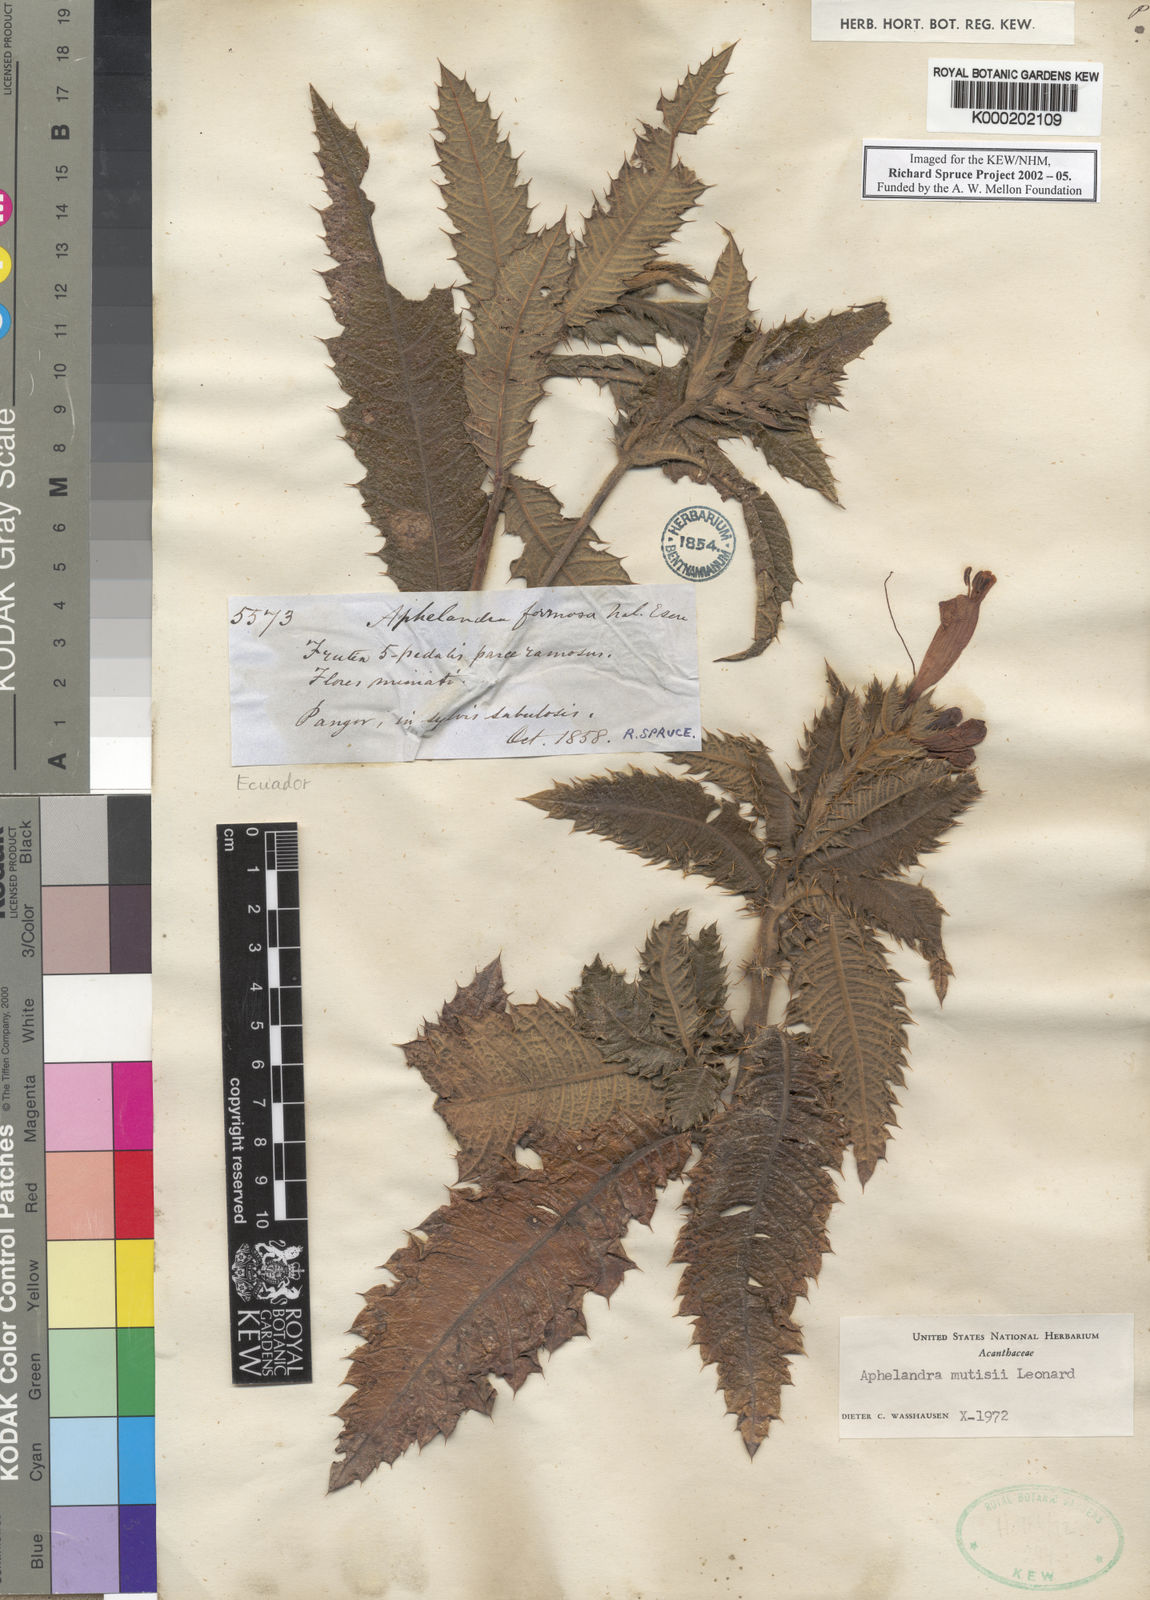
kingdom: Plantae
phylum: Tracheophyta
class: Magnoliopsida
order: Lamiales
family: Acanthaceae
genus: Aphelandra
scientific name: Aphelandra formosa
